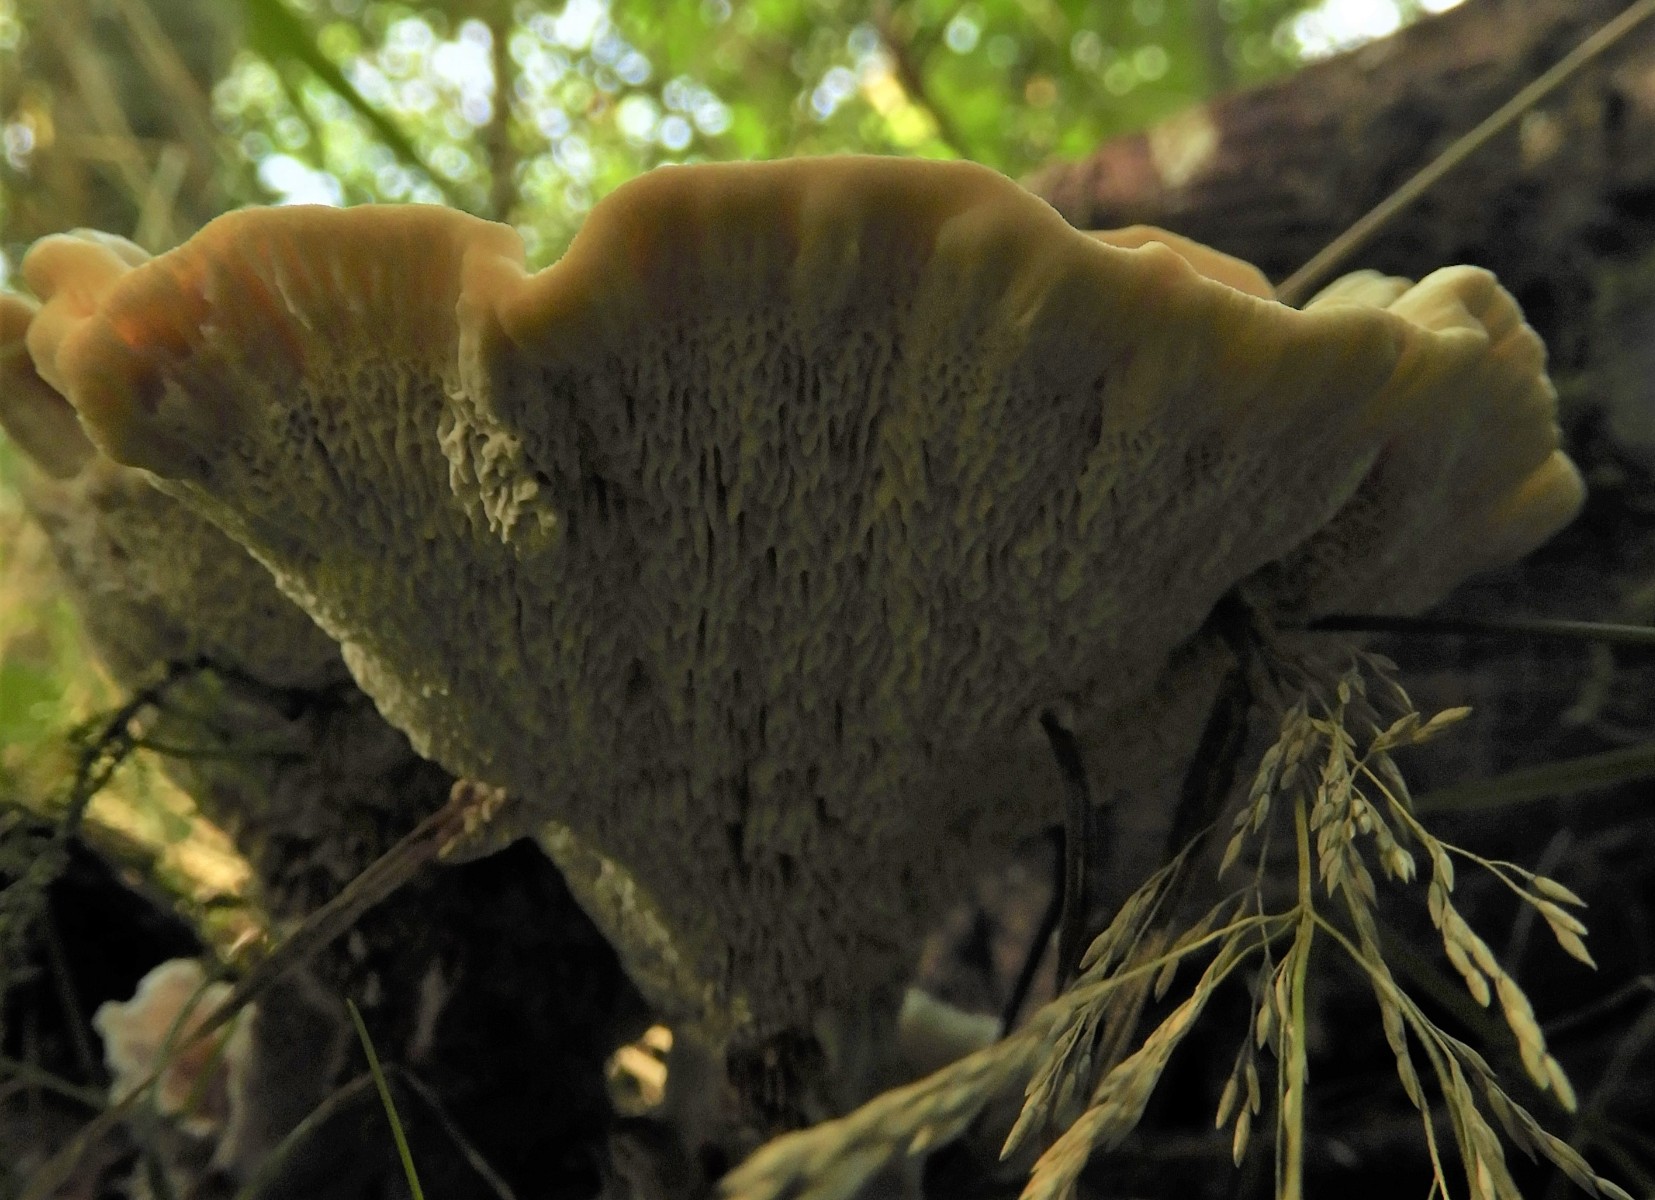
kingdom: Fungi
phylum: Basidiomycota
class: Agaricomycetes
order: Polyporales
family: Podoscyphaceae
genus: Abortiporus
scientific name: Abortiporus biennis
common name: rødmende pjalteporesvamp
